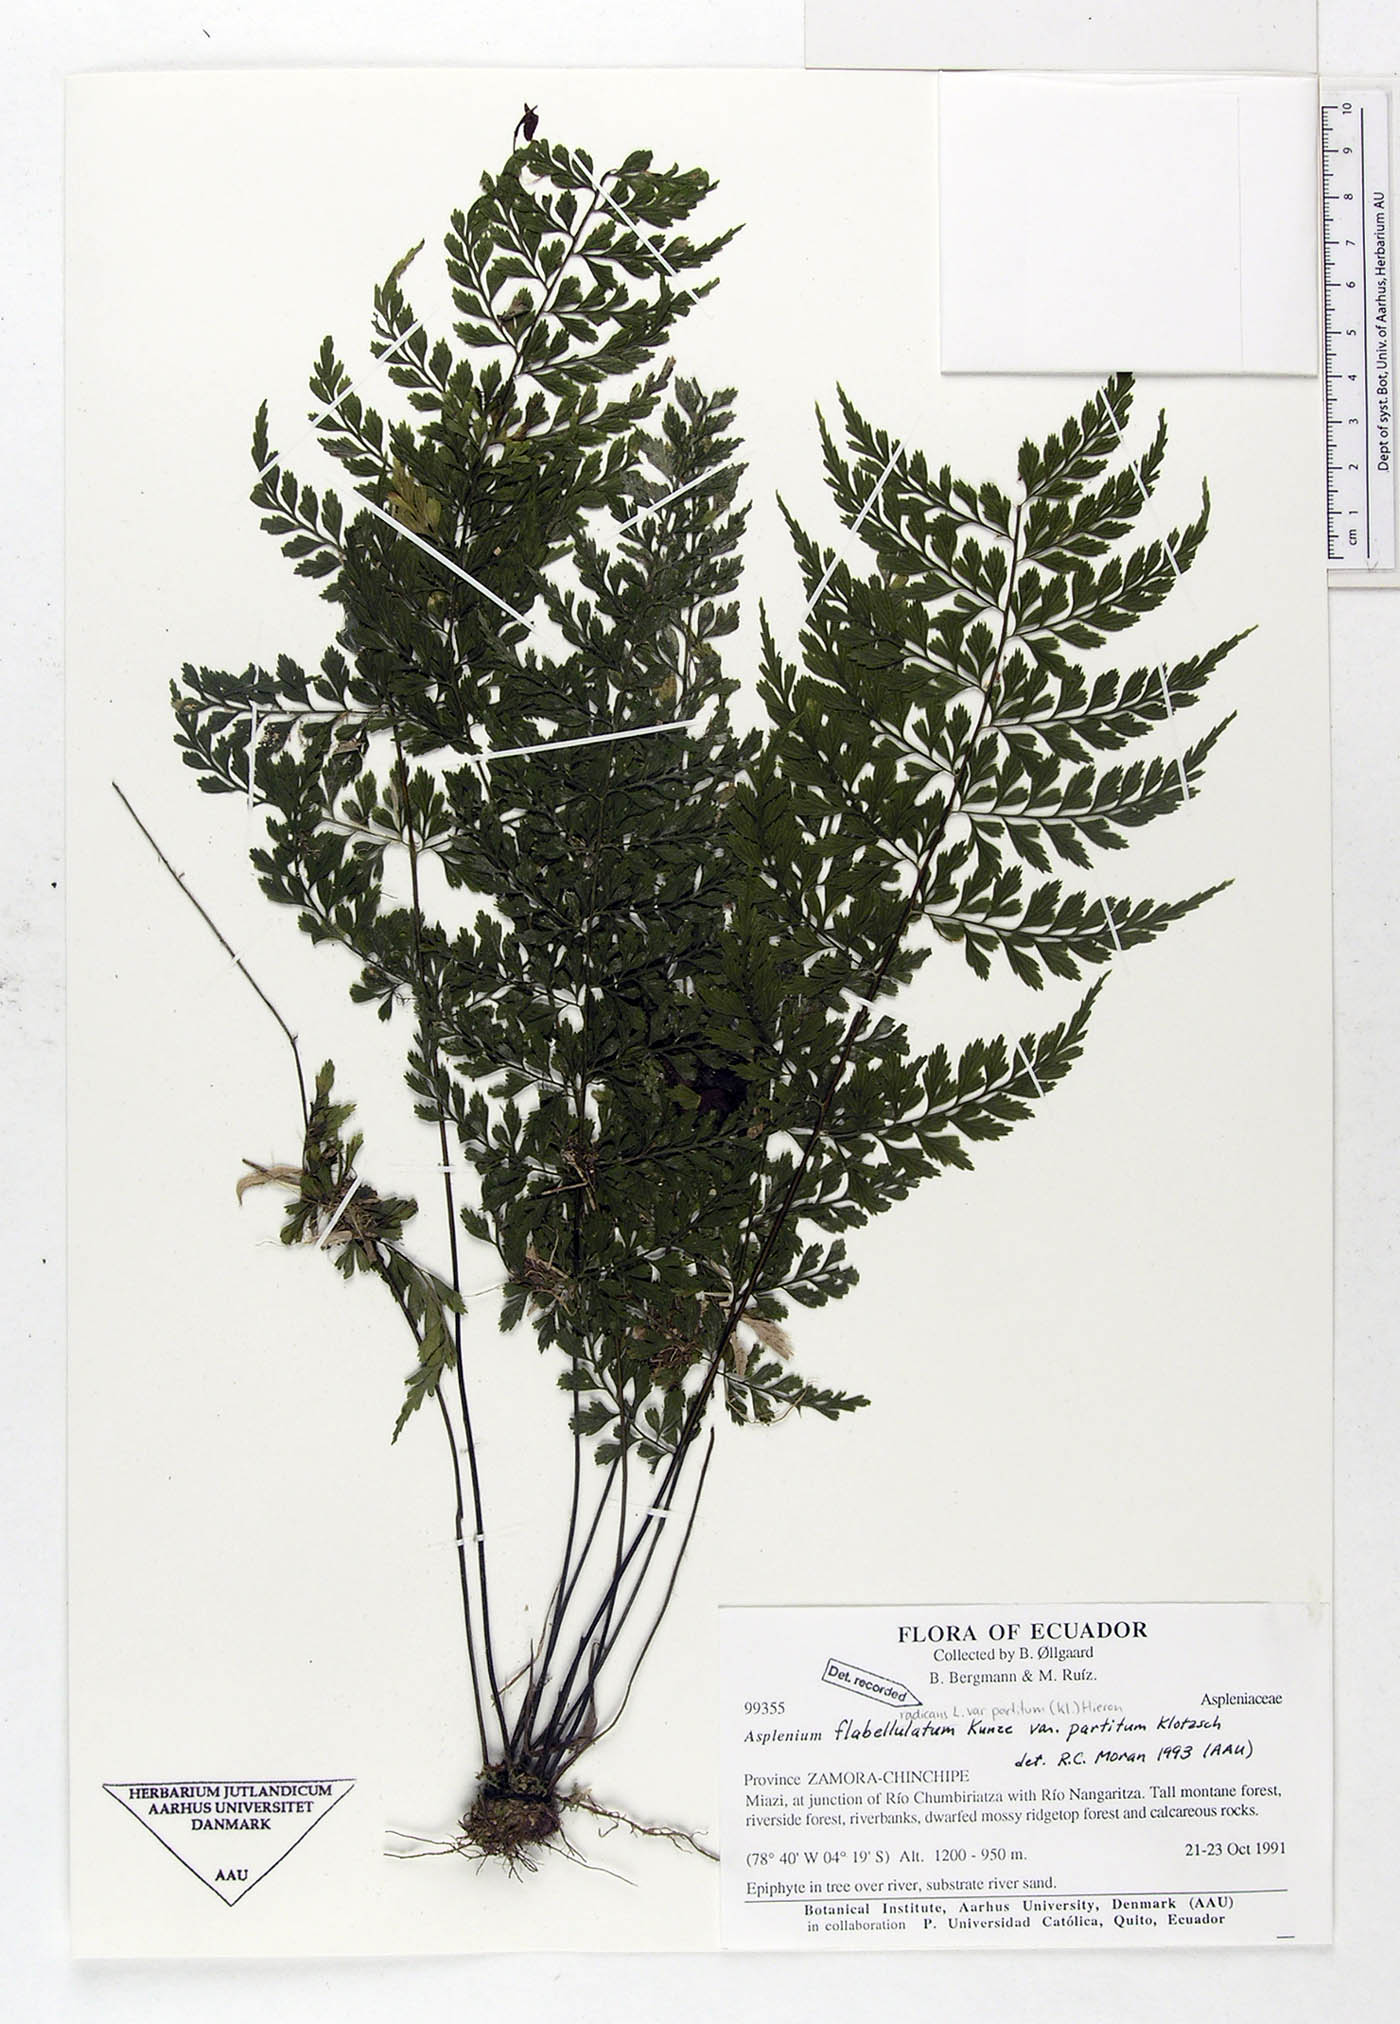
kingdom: Plantae
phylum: Tracheophyta
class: Polypodiopsida
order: Polypodiales
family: Aspleniaceae
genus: Asplenium
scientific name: Asplenium flabellulatum
